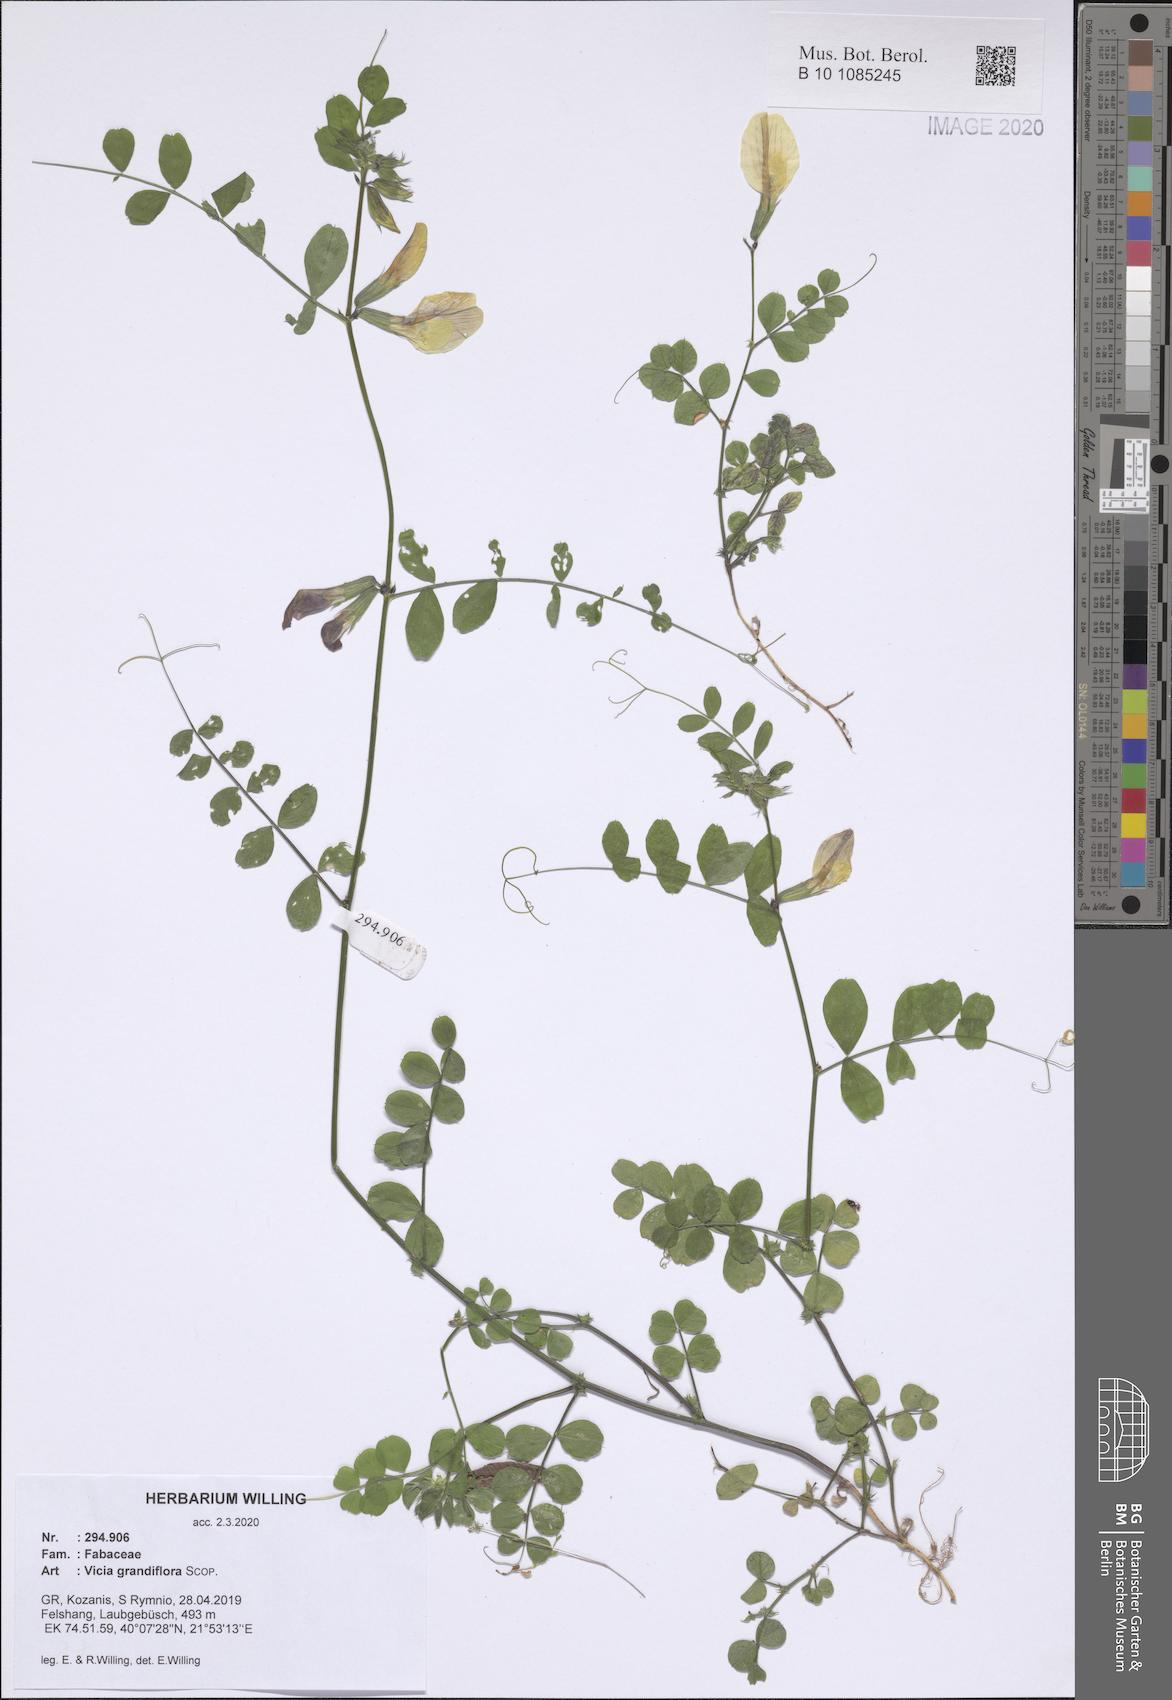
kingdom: Plantae
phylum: Tracheophyta
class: Magnoliopsida
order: Fabales
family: Fabaceae
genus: Vicia
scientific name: Vicia grandiflora
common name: Large yellow vetch
